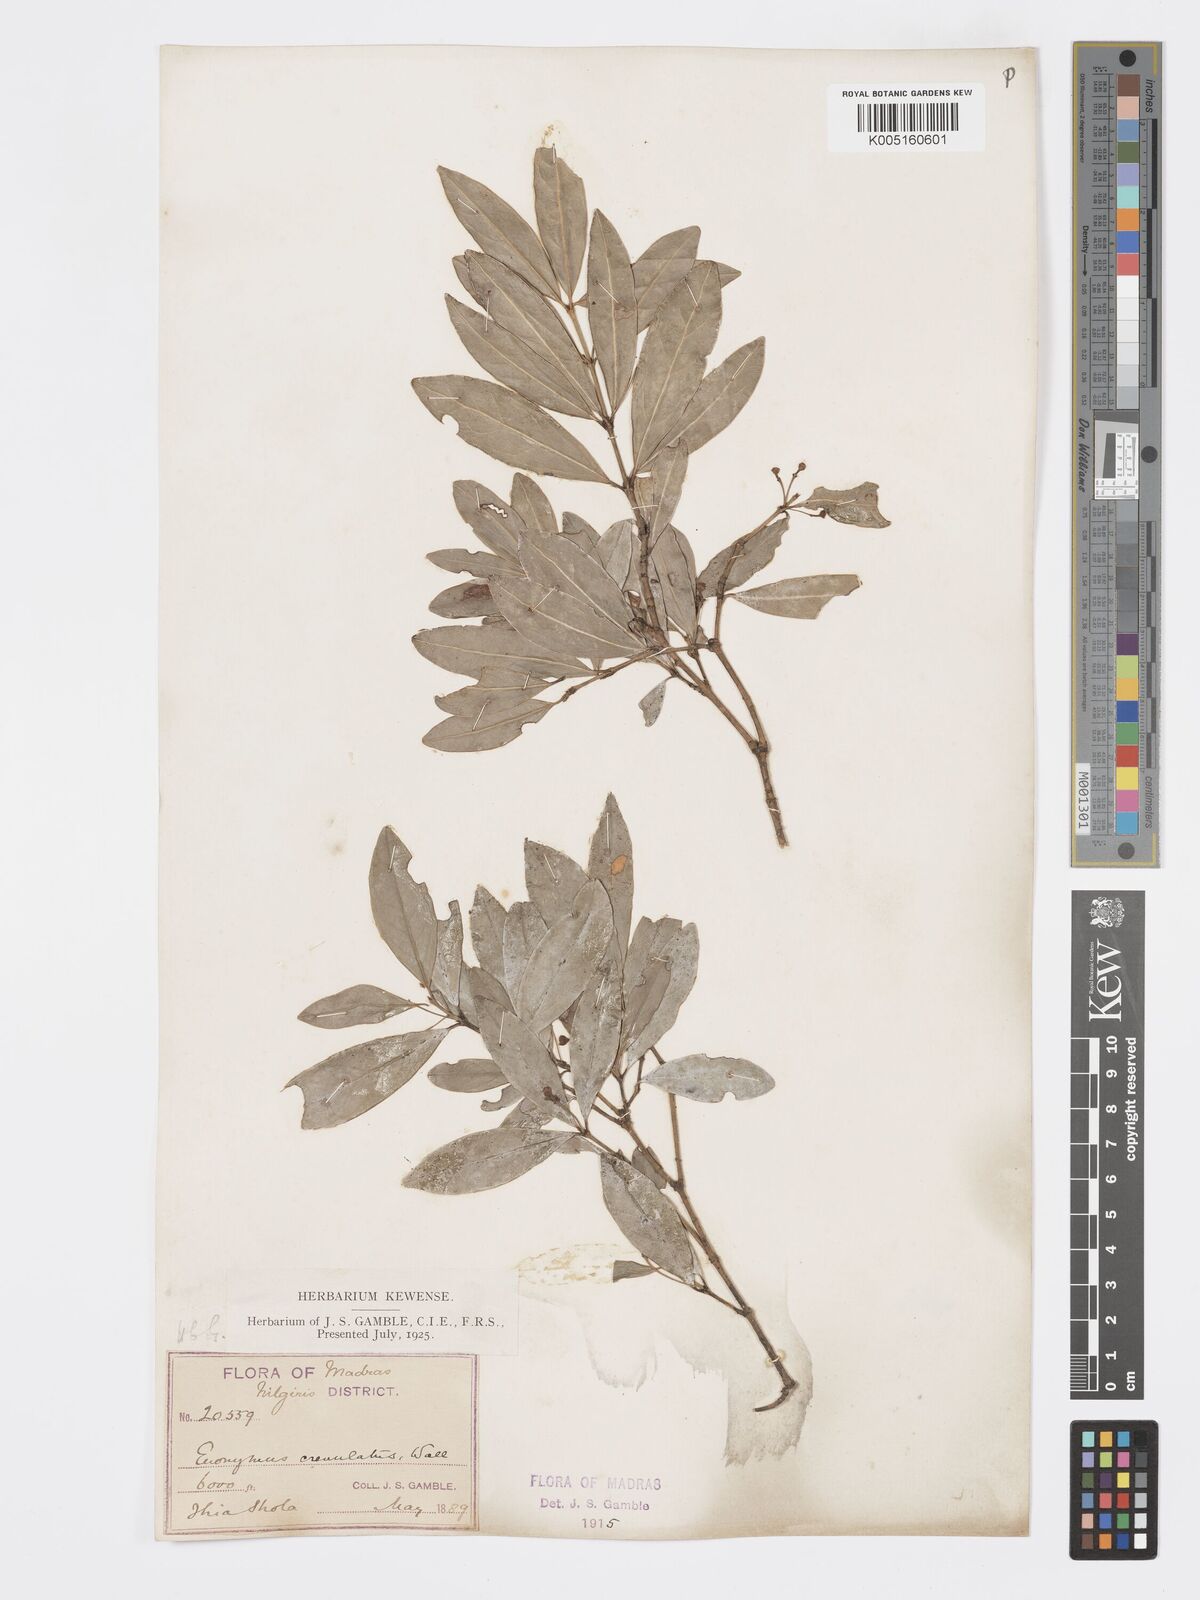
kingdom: Plantae
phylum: Tracheophyta
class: Magnoliopsida
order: Celastrales
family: Celastraceae
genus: Euonymus
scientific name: Euonymus crenulatus
